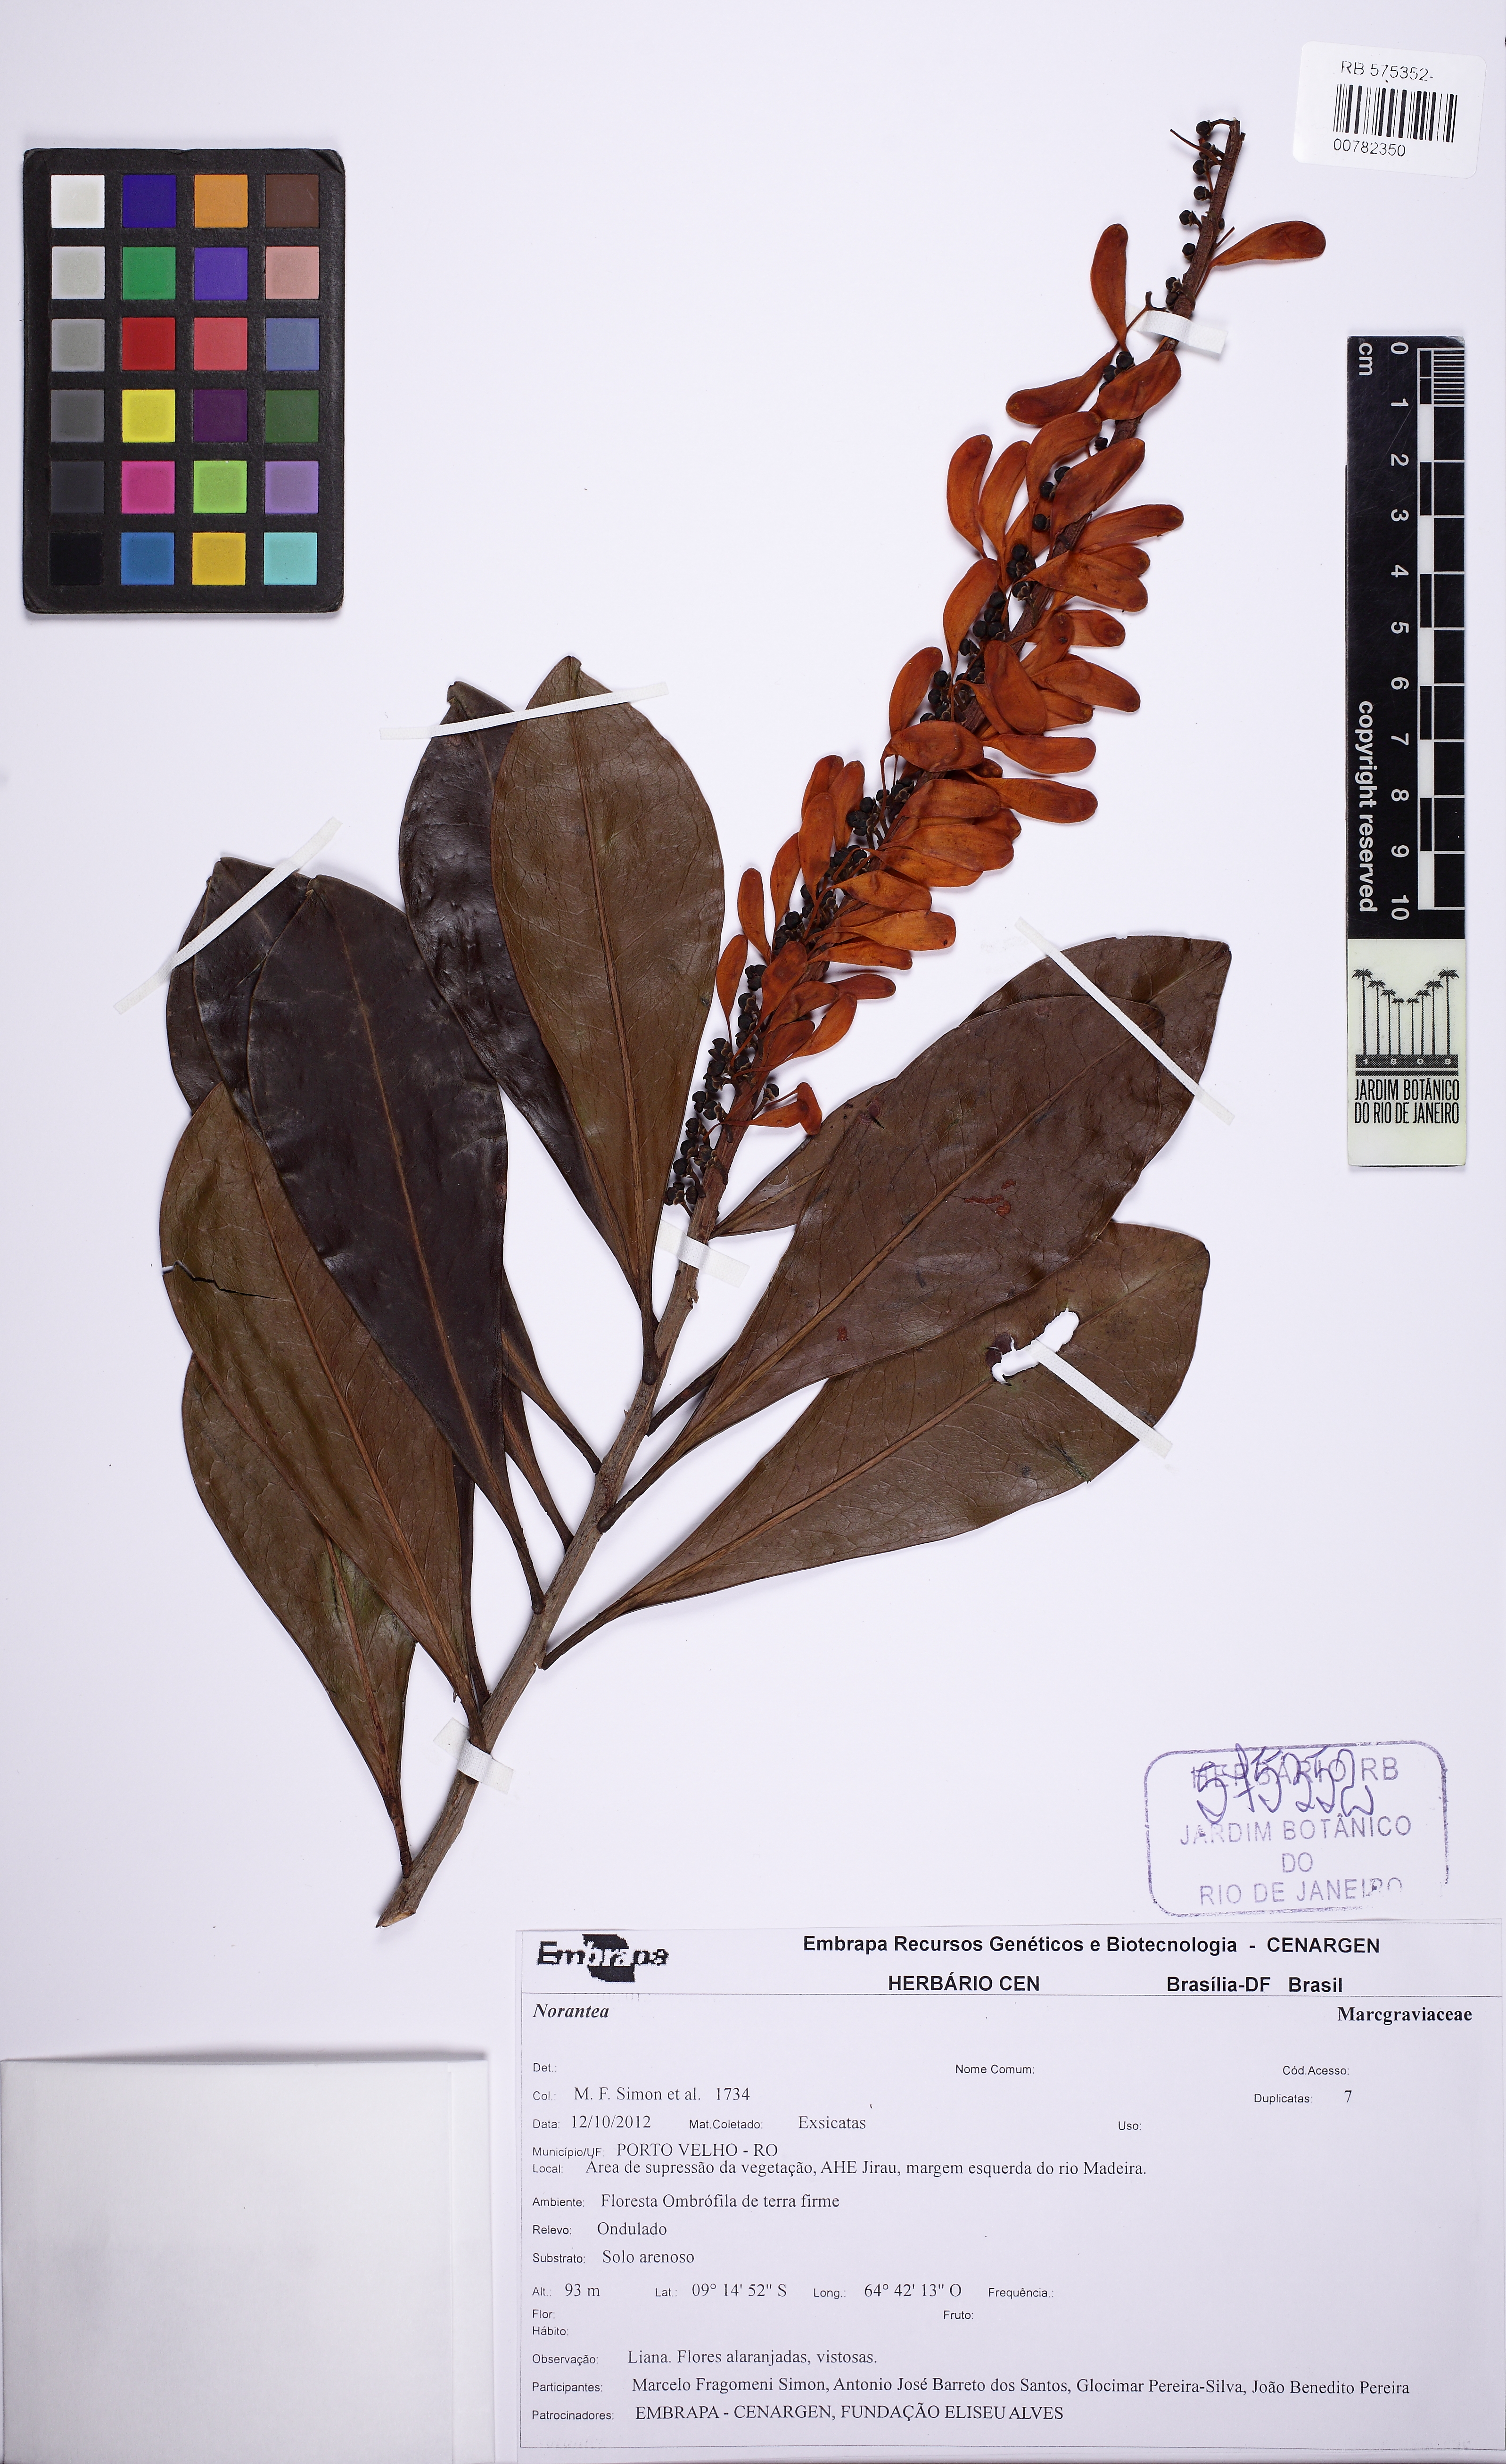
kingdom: Plantae
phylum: Tracheophyta
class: Magnoliopsida
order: Ericales
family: Marcgraviaceae
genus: Norantea
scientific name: Norantea
